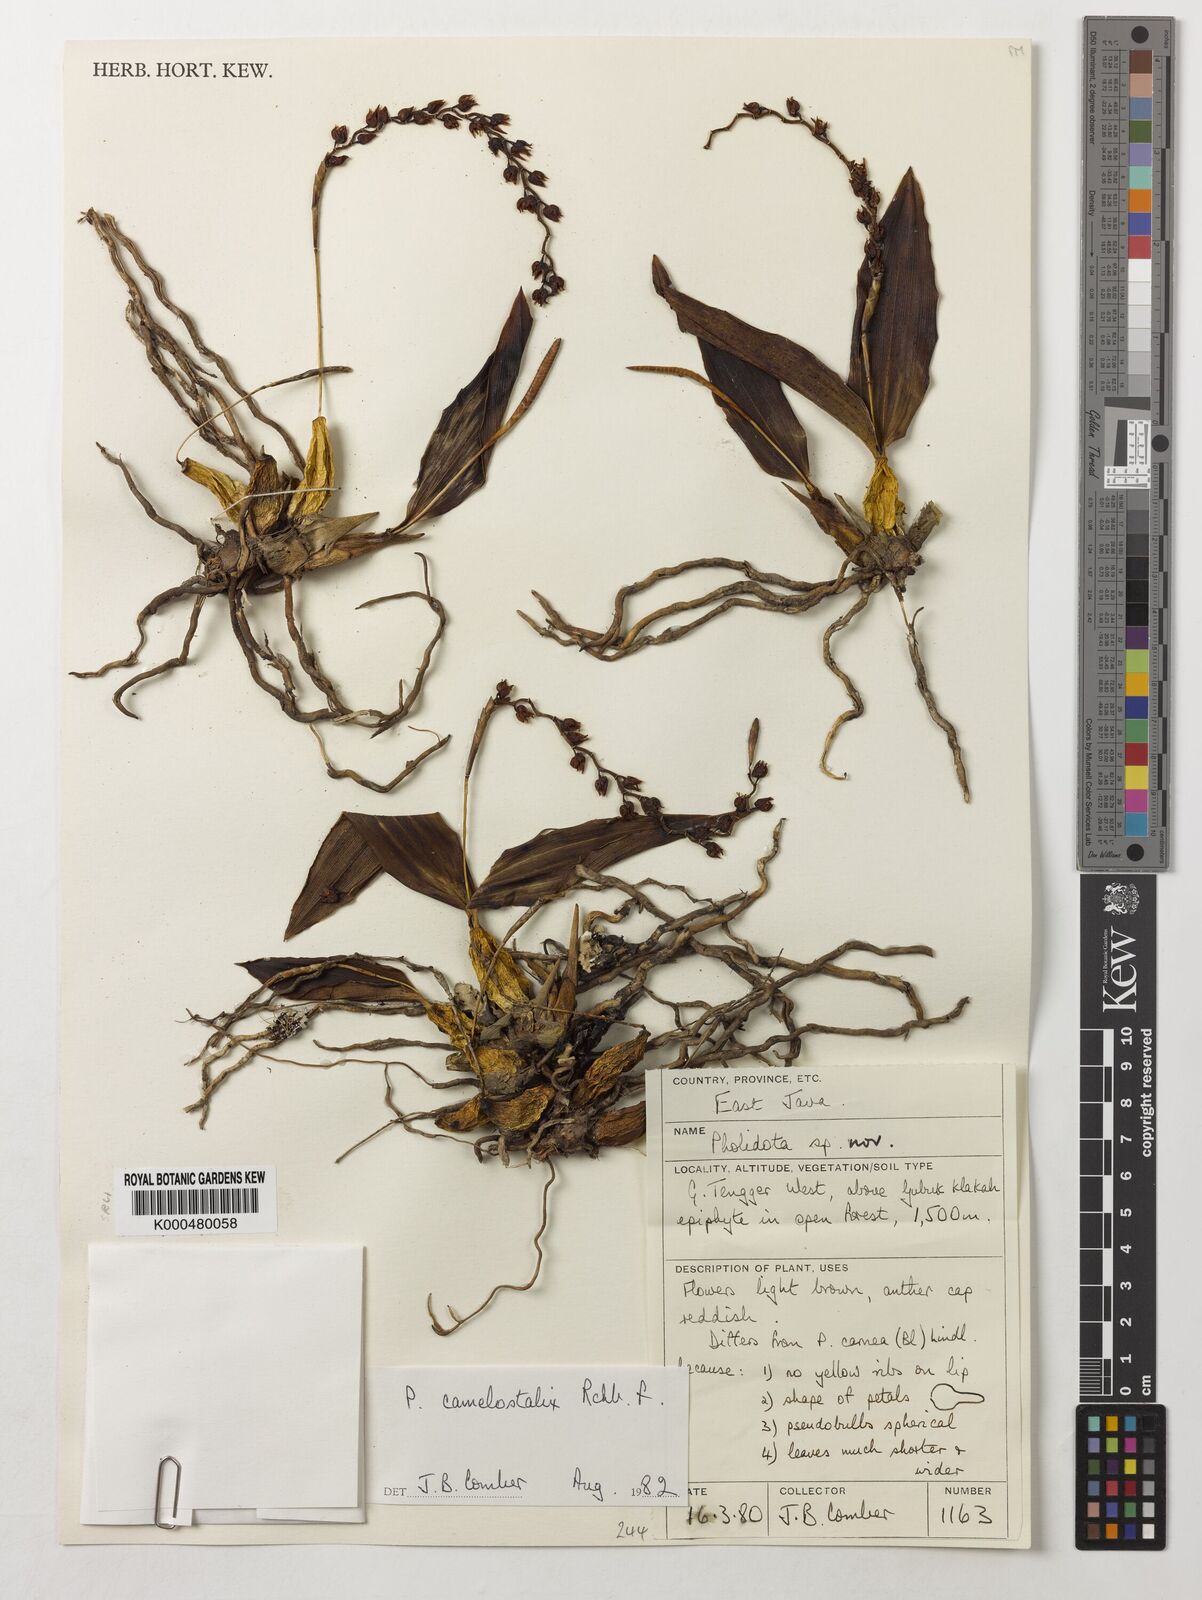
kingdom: Plantae
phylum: Tracheophyta
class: Liliopsida
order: Asparagales
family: Orchidaceae
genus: Coelogyne
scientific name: Coelogyne camelostalix
